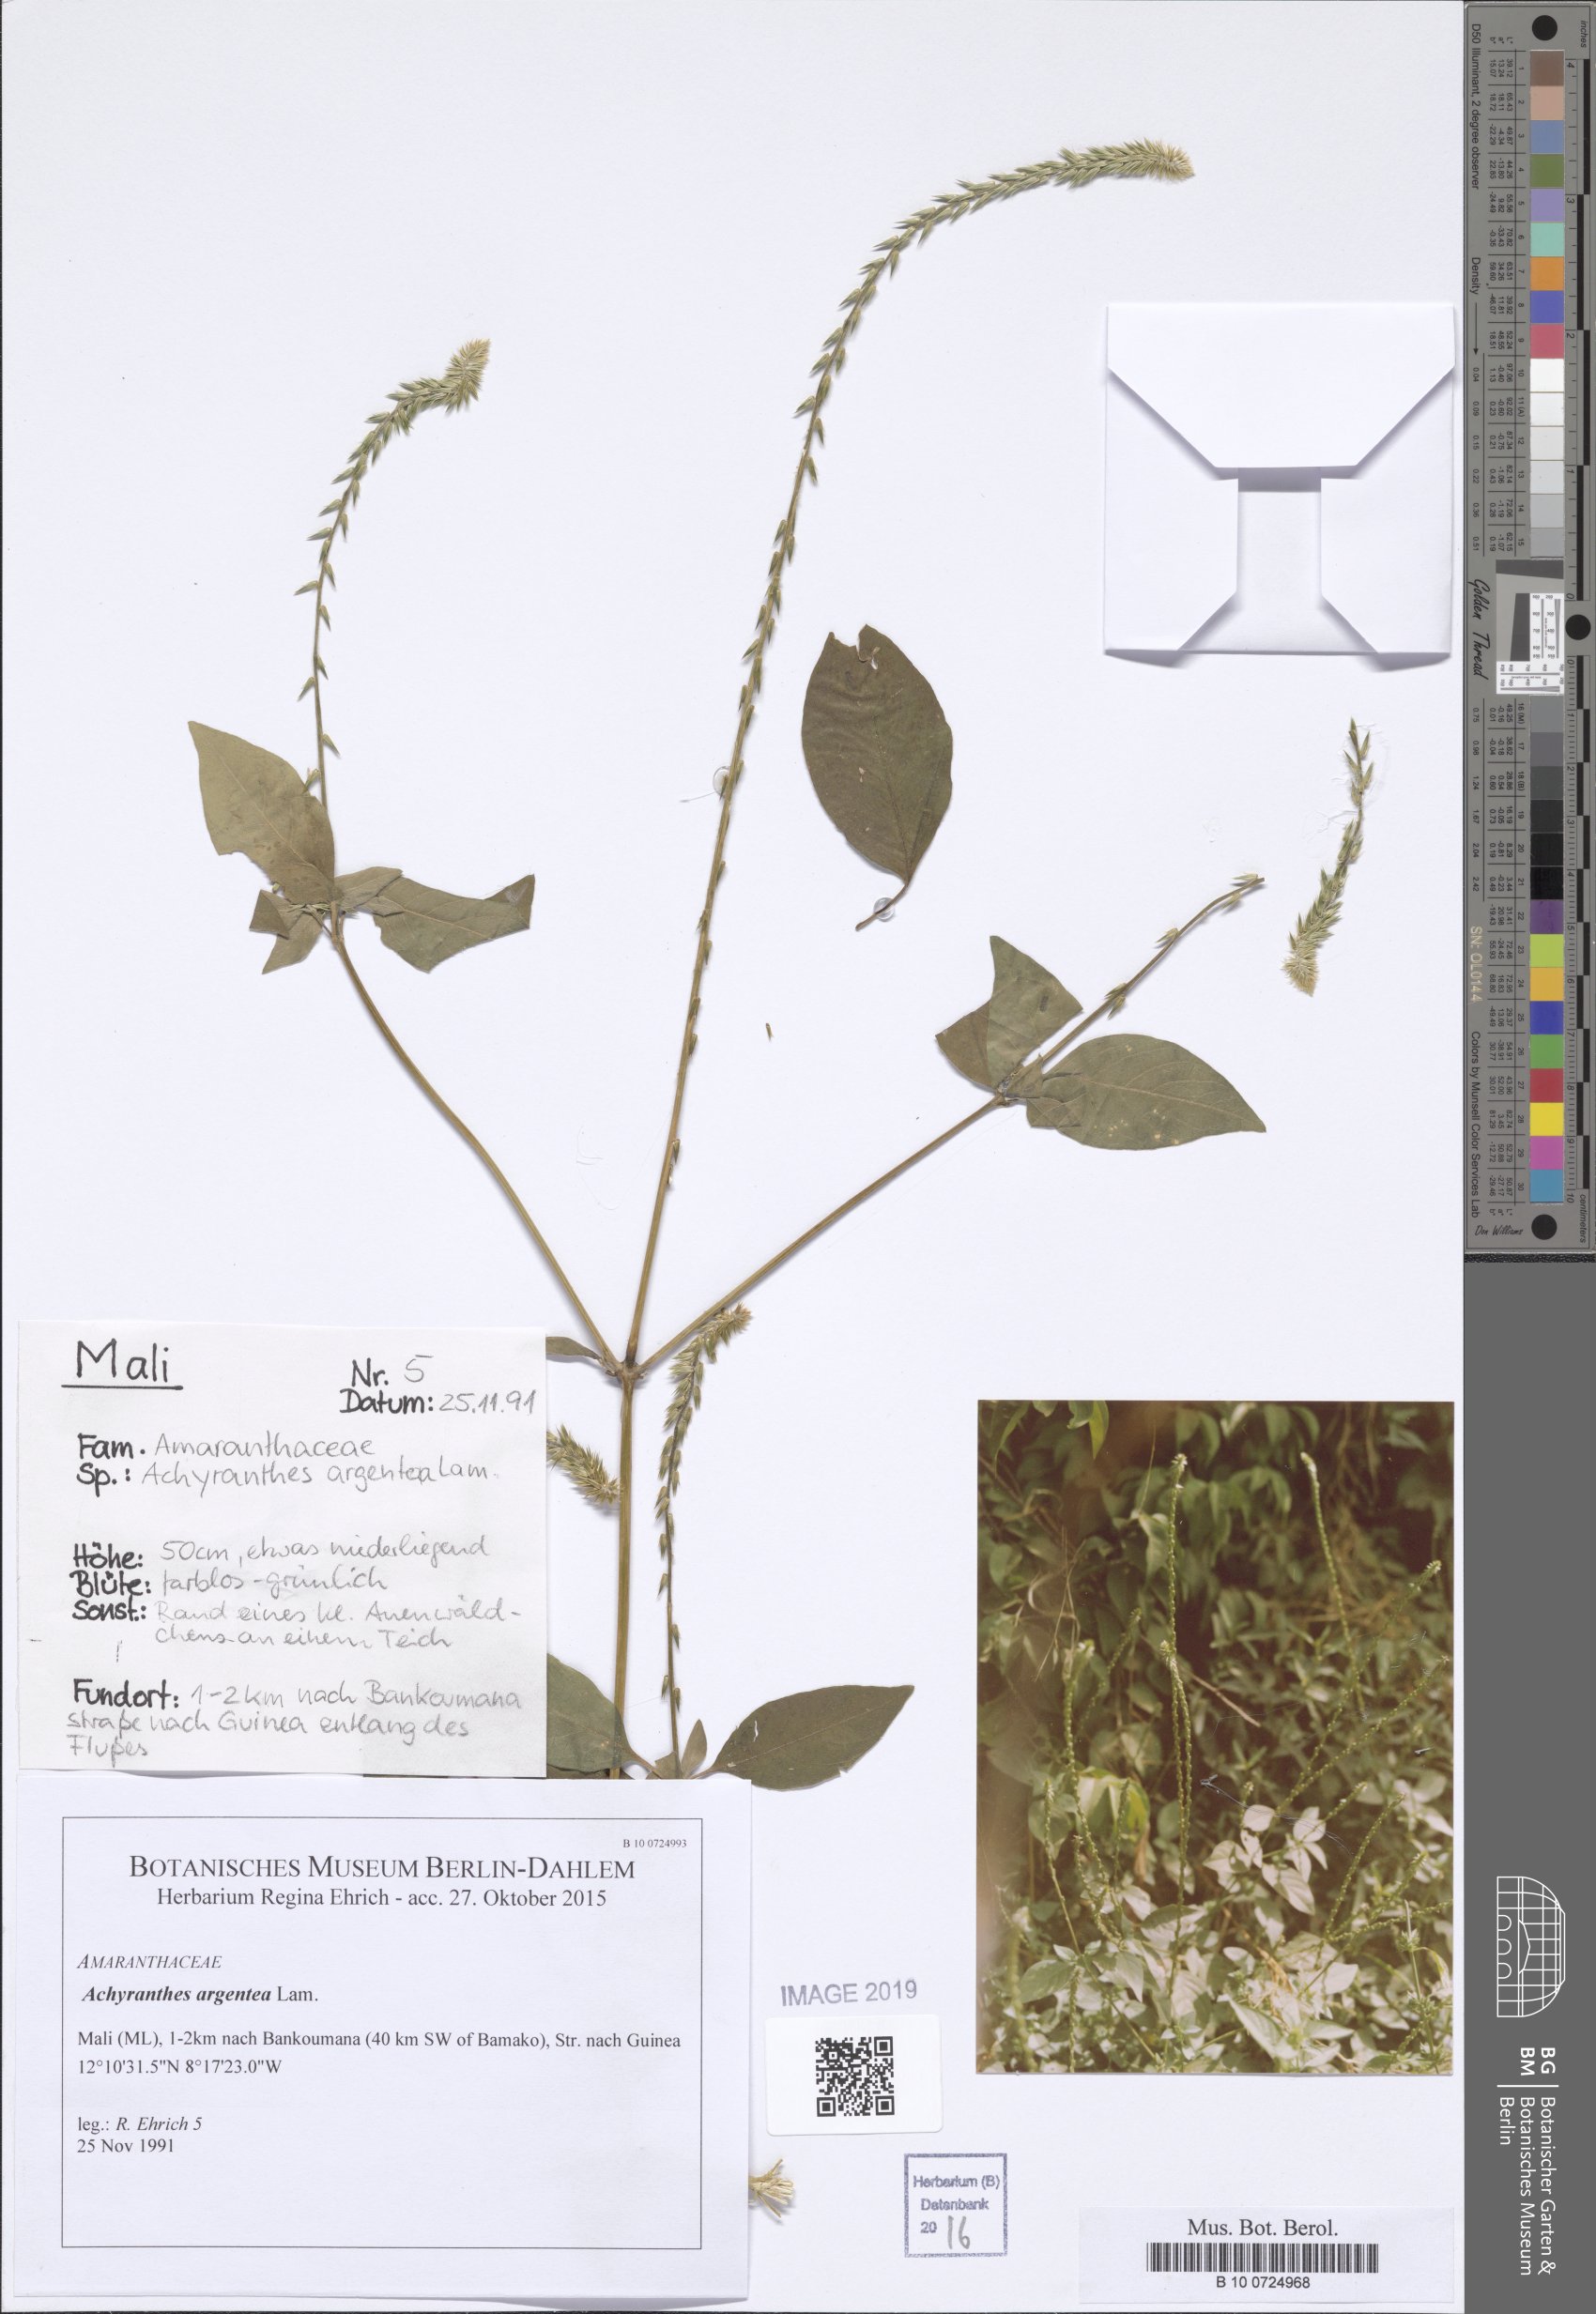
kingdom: Plantae
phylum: Tracheophyta
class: Magnoliopsida
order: Fabales
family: Fabaceae
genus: Indigofera
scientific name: Indigofera
